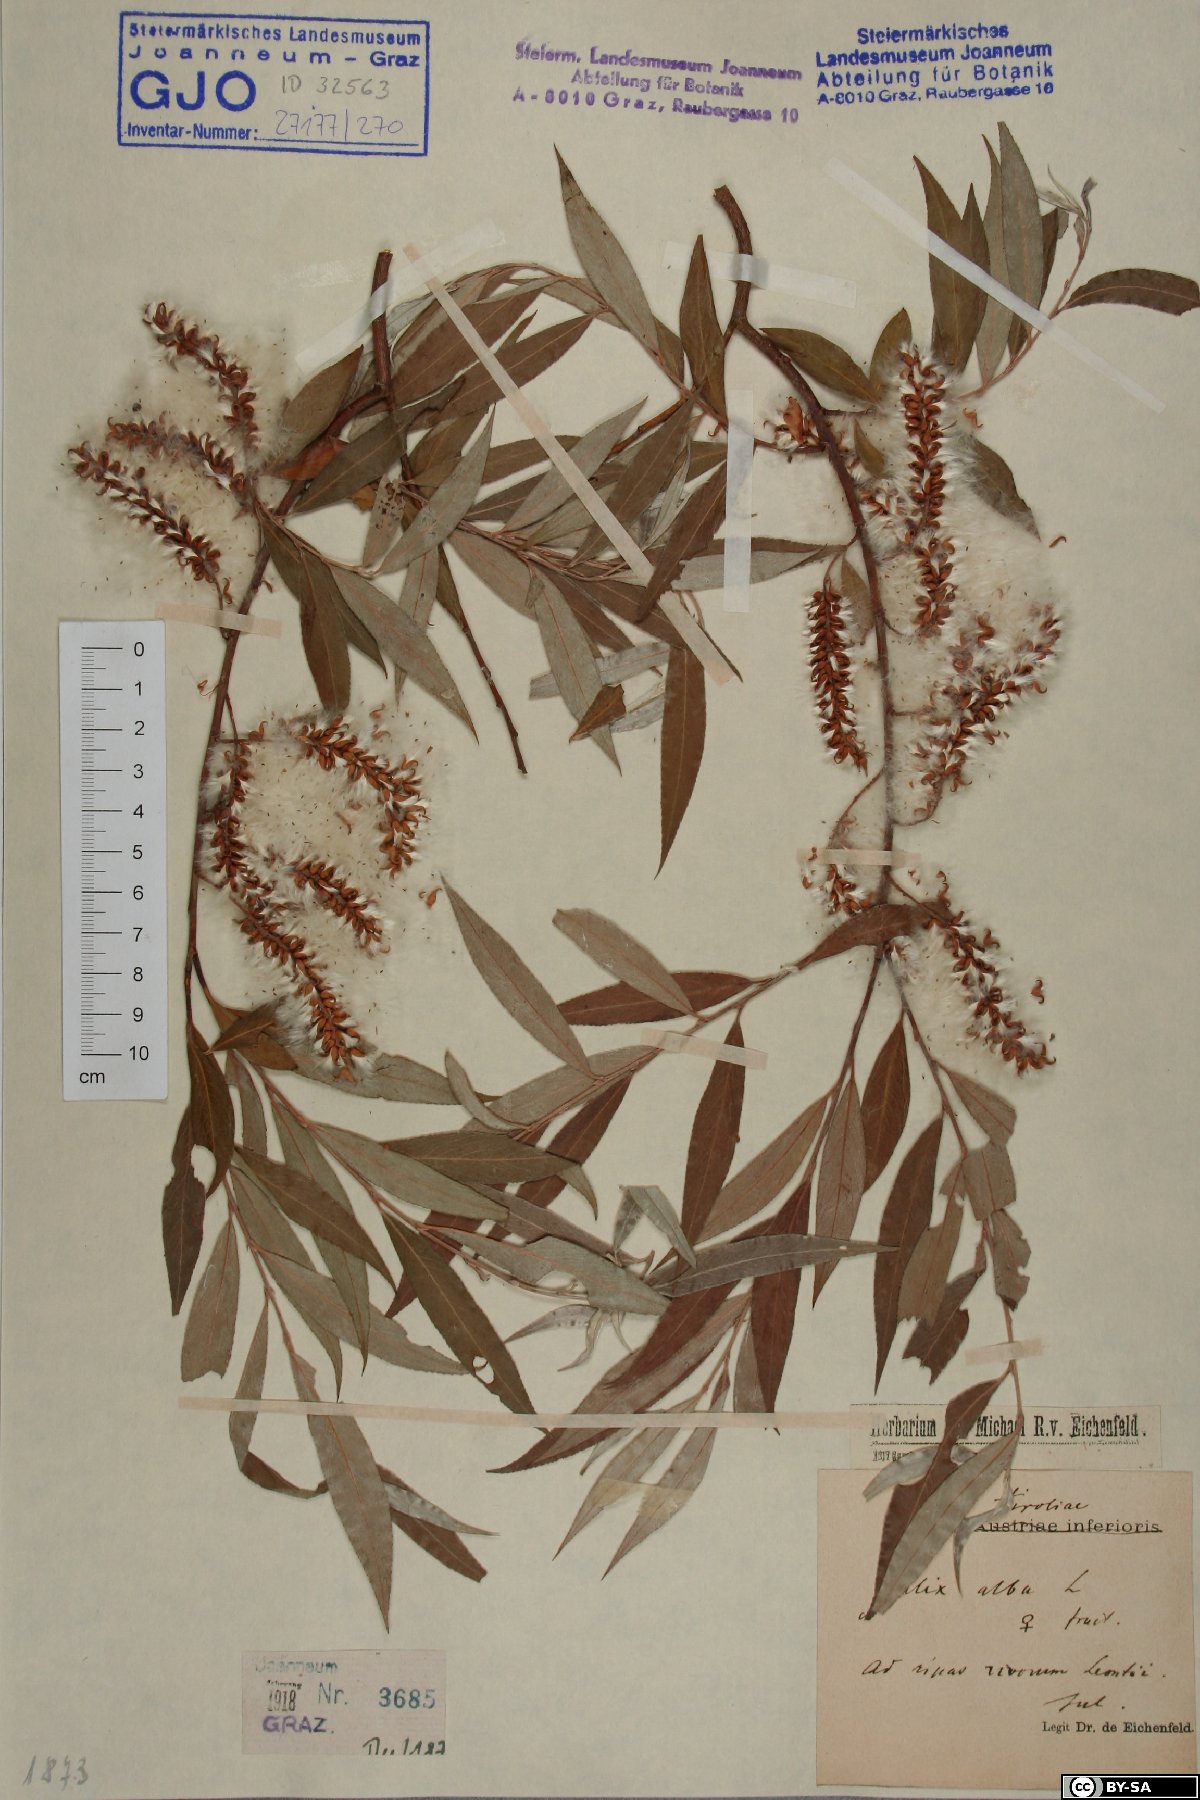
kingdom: Plantae
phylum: Tracheophyta
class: Magnoliopsida
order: Malpighiales
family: Salicaceae
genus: Salix
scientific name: Salix alba
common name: White willow
